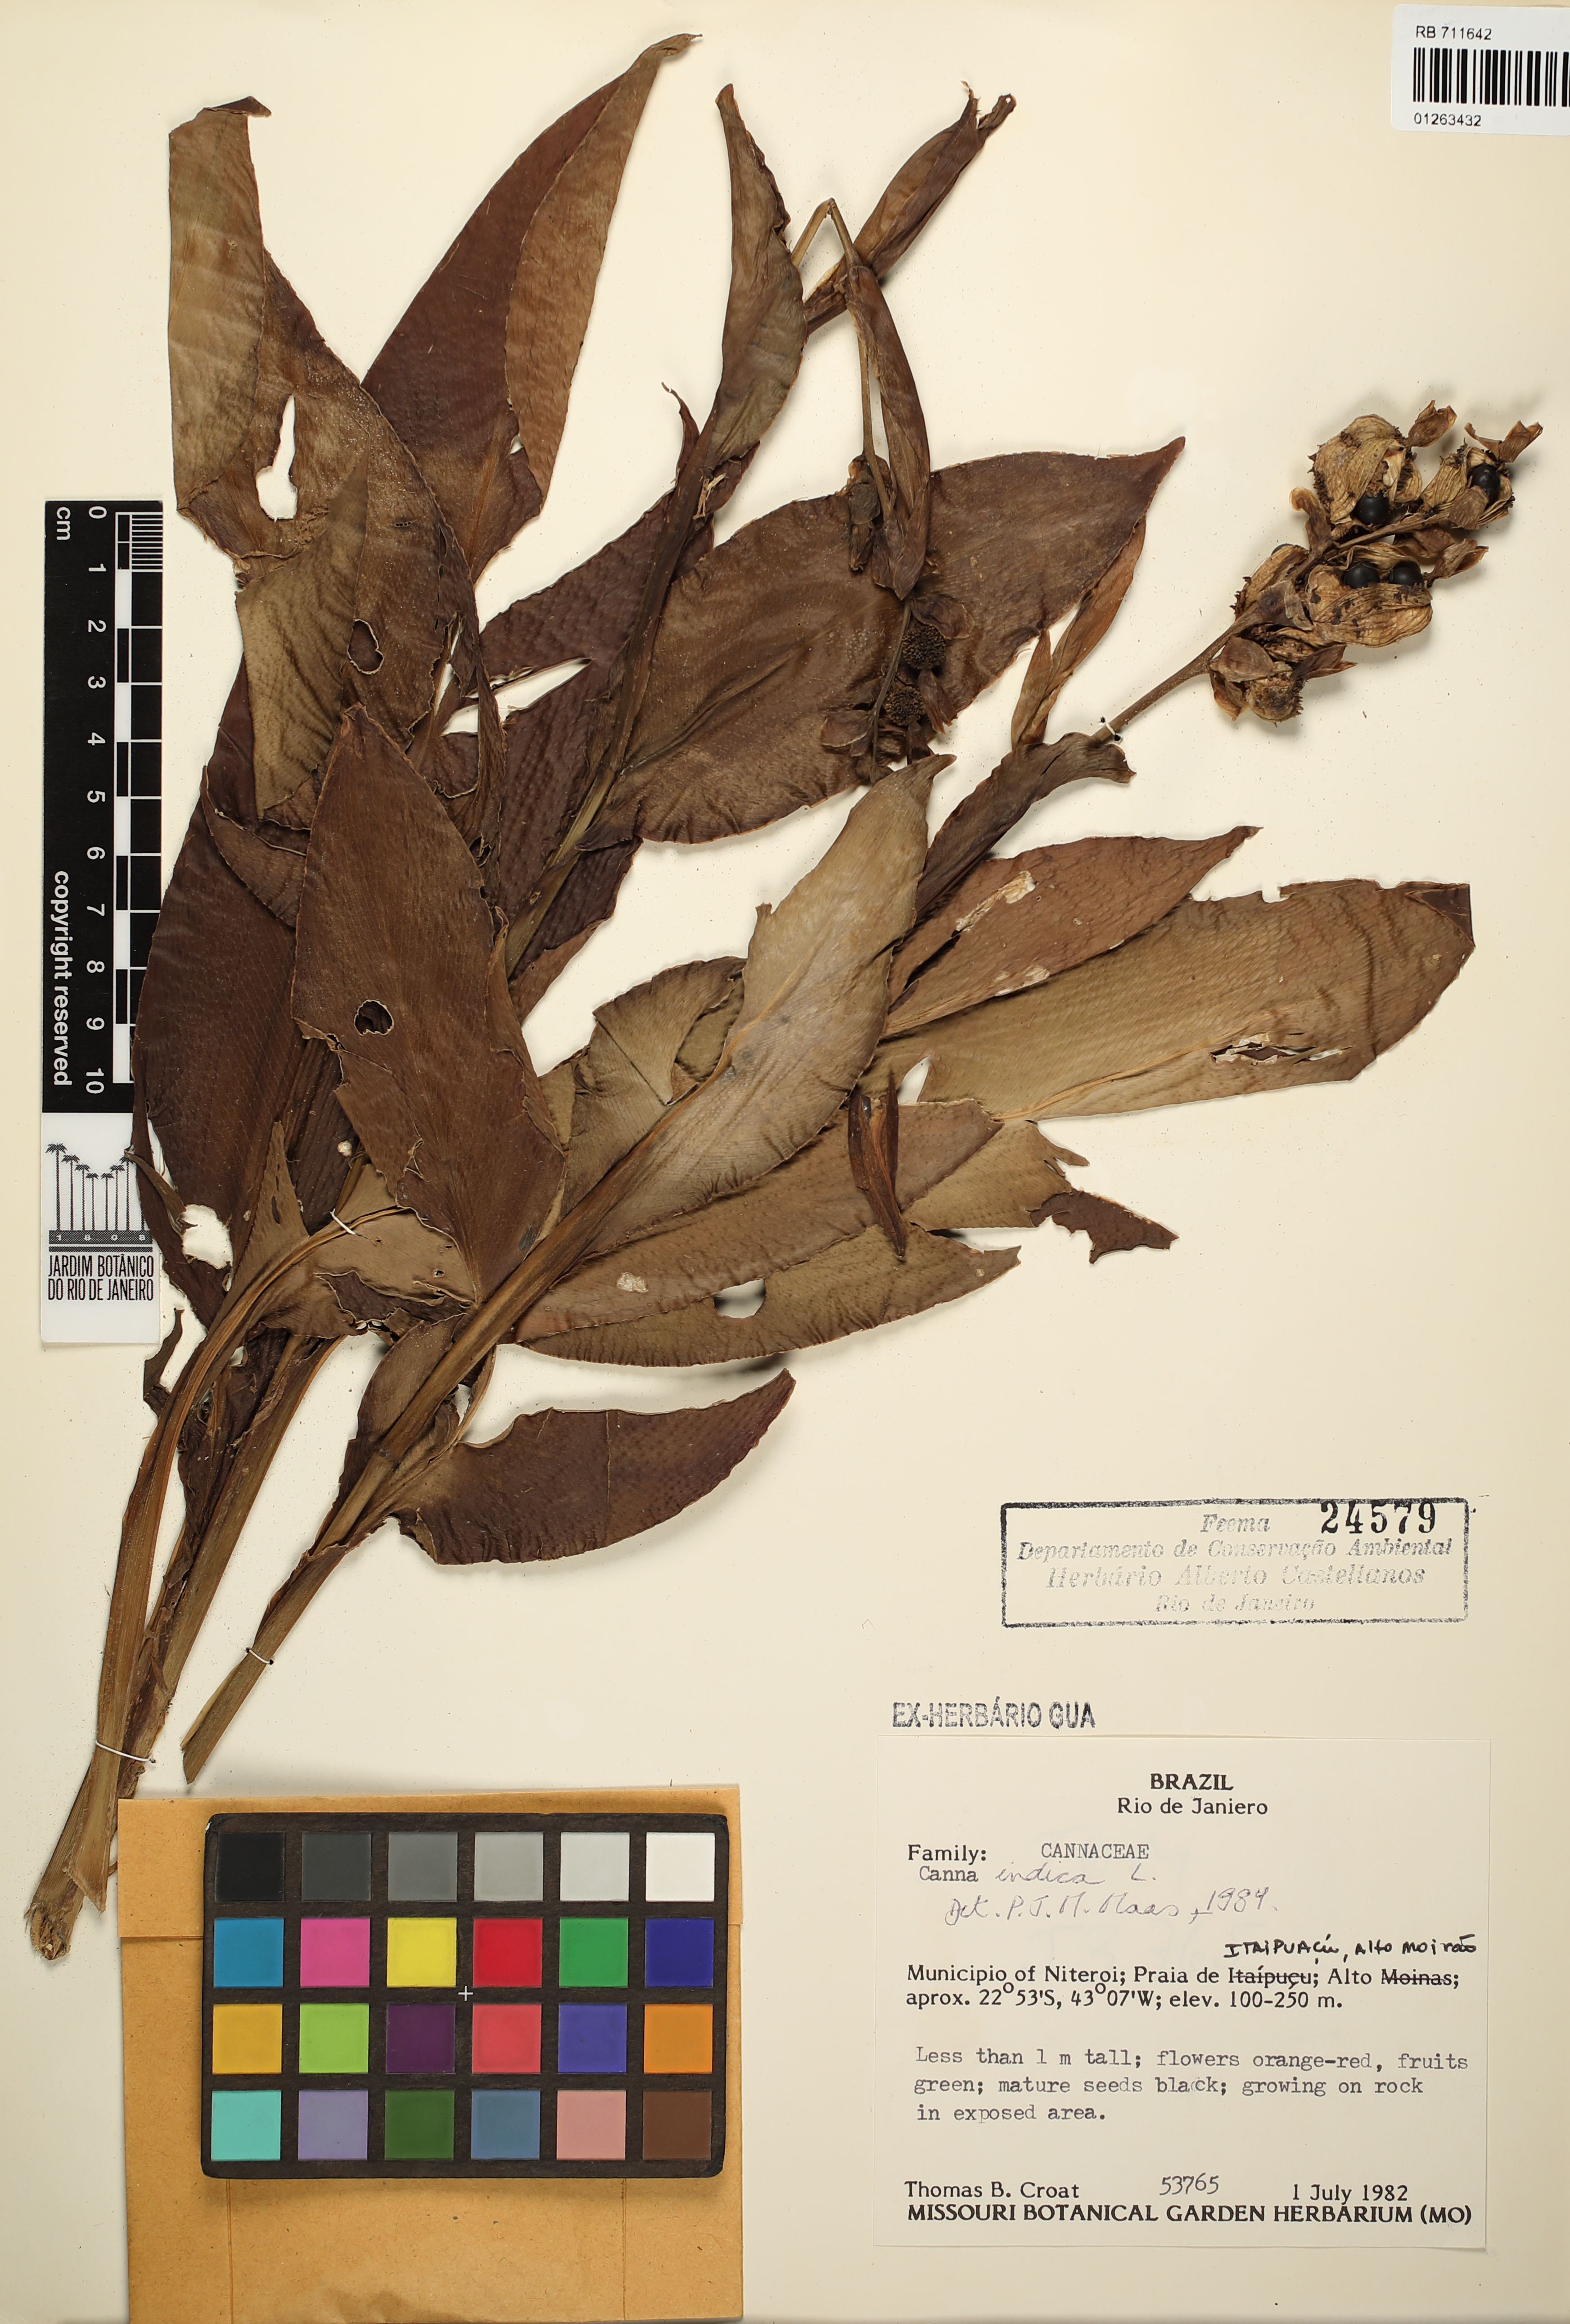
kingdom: Plantae
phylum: Tracheophyta
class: Liliopsida
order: Zingiberales
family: Cannaceae
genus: Canna
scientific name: Canna indica
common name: Indian shot
